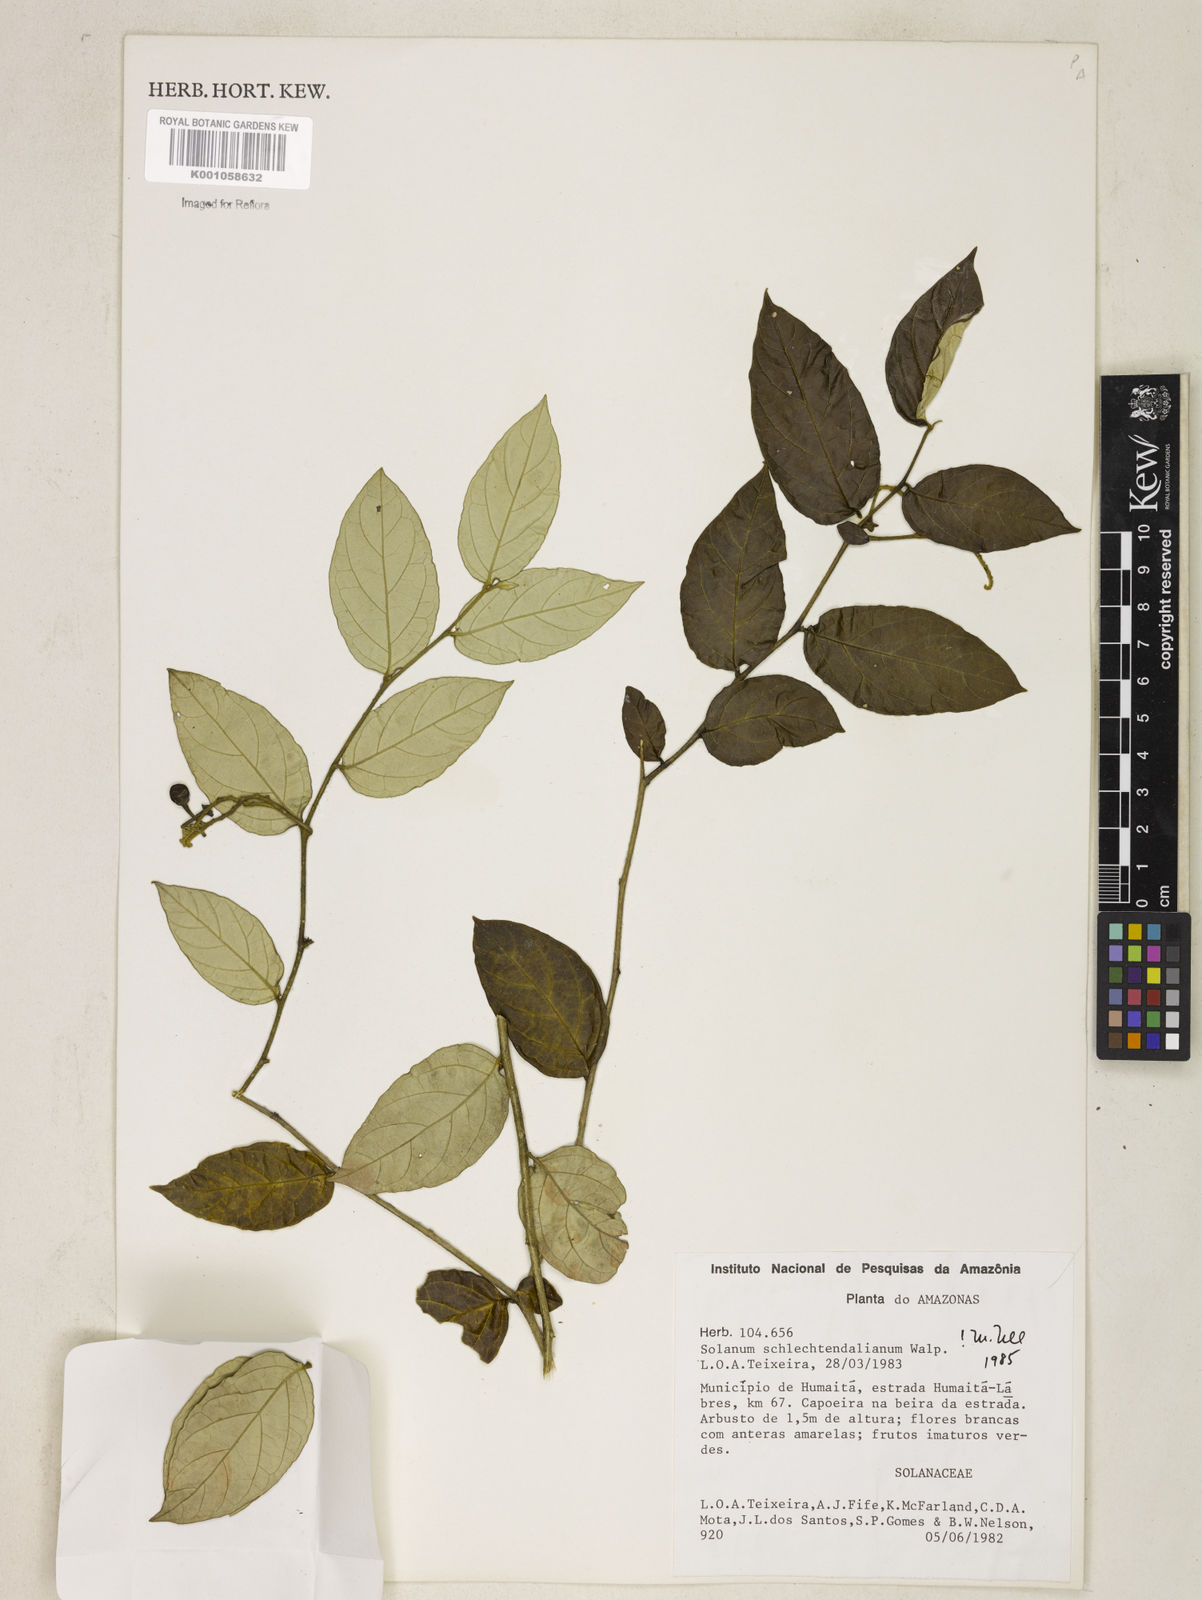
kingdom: Plantae
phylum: Tracheophyta
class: Magnoliopsida
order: Solanales
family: Solanaceae
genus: Solanum
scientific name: Solanum schlechtendalianum
